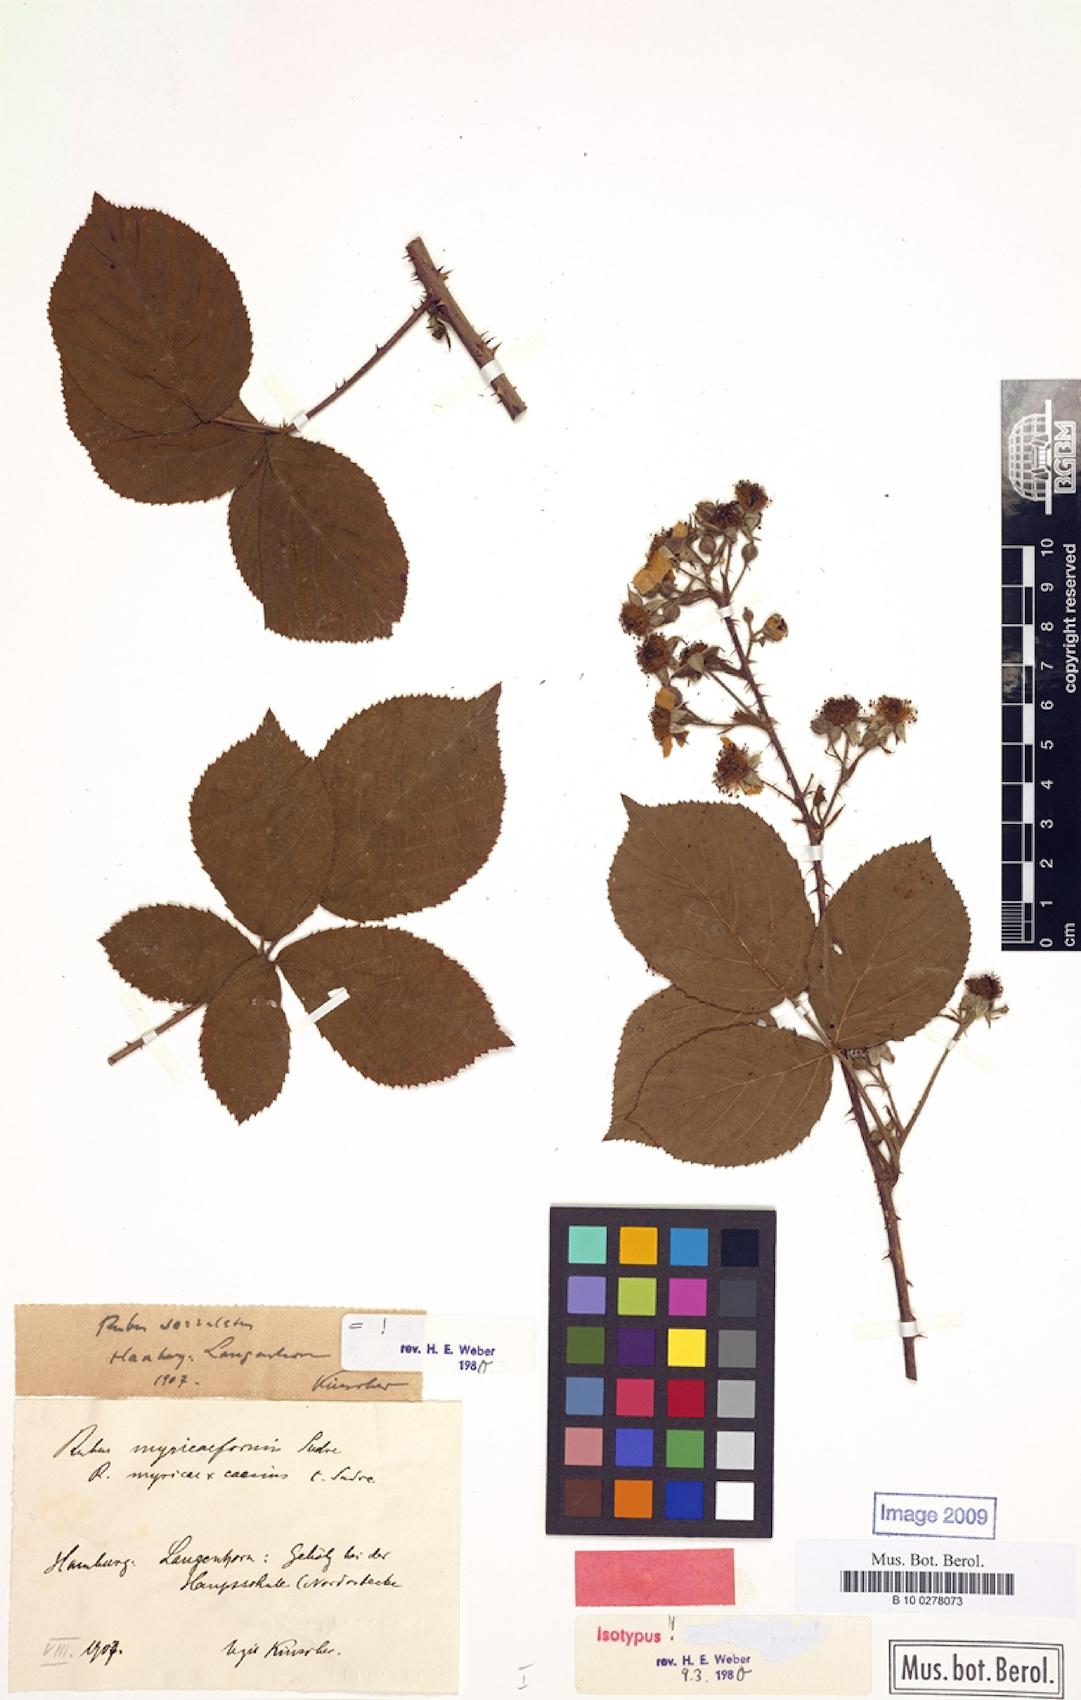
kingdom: Plantae
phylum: Tracheophyta
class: Magnoliopsida
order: Rosales
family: Rosaceae
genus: Rubus
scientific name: Rubus lamprocaulos
